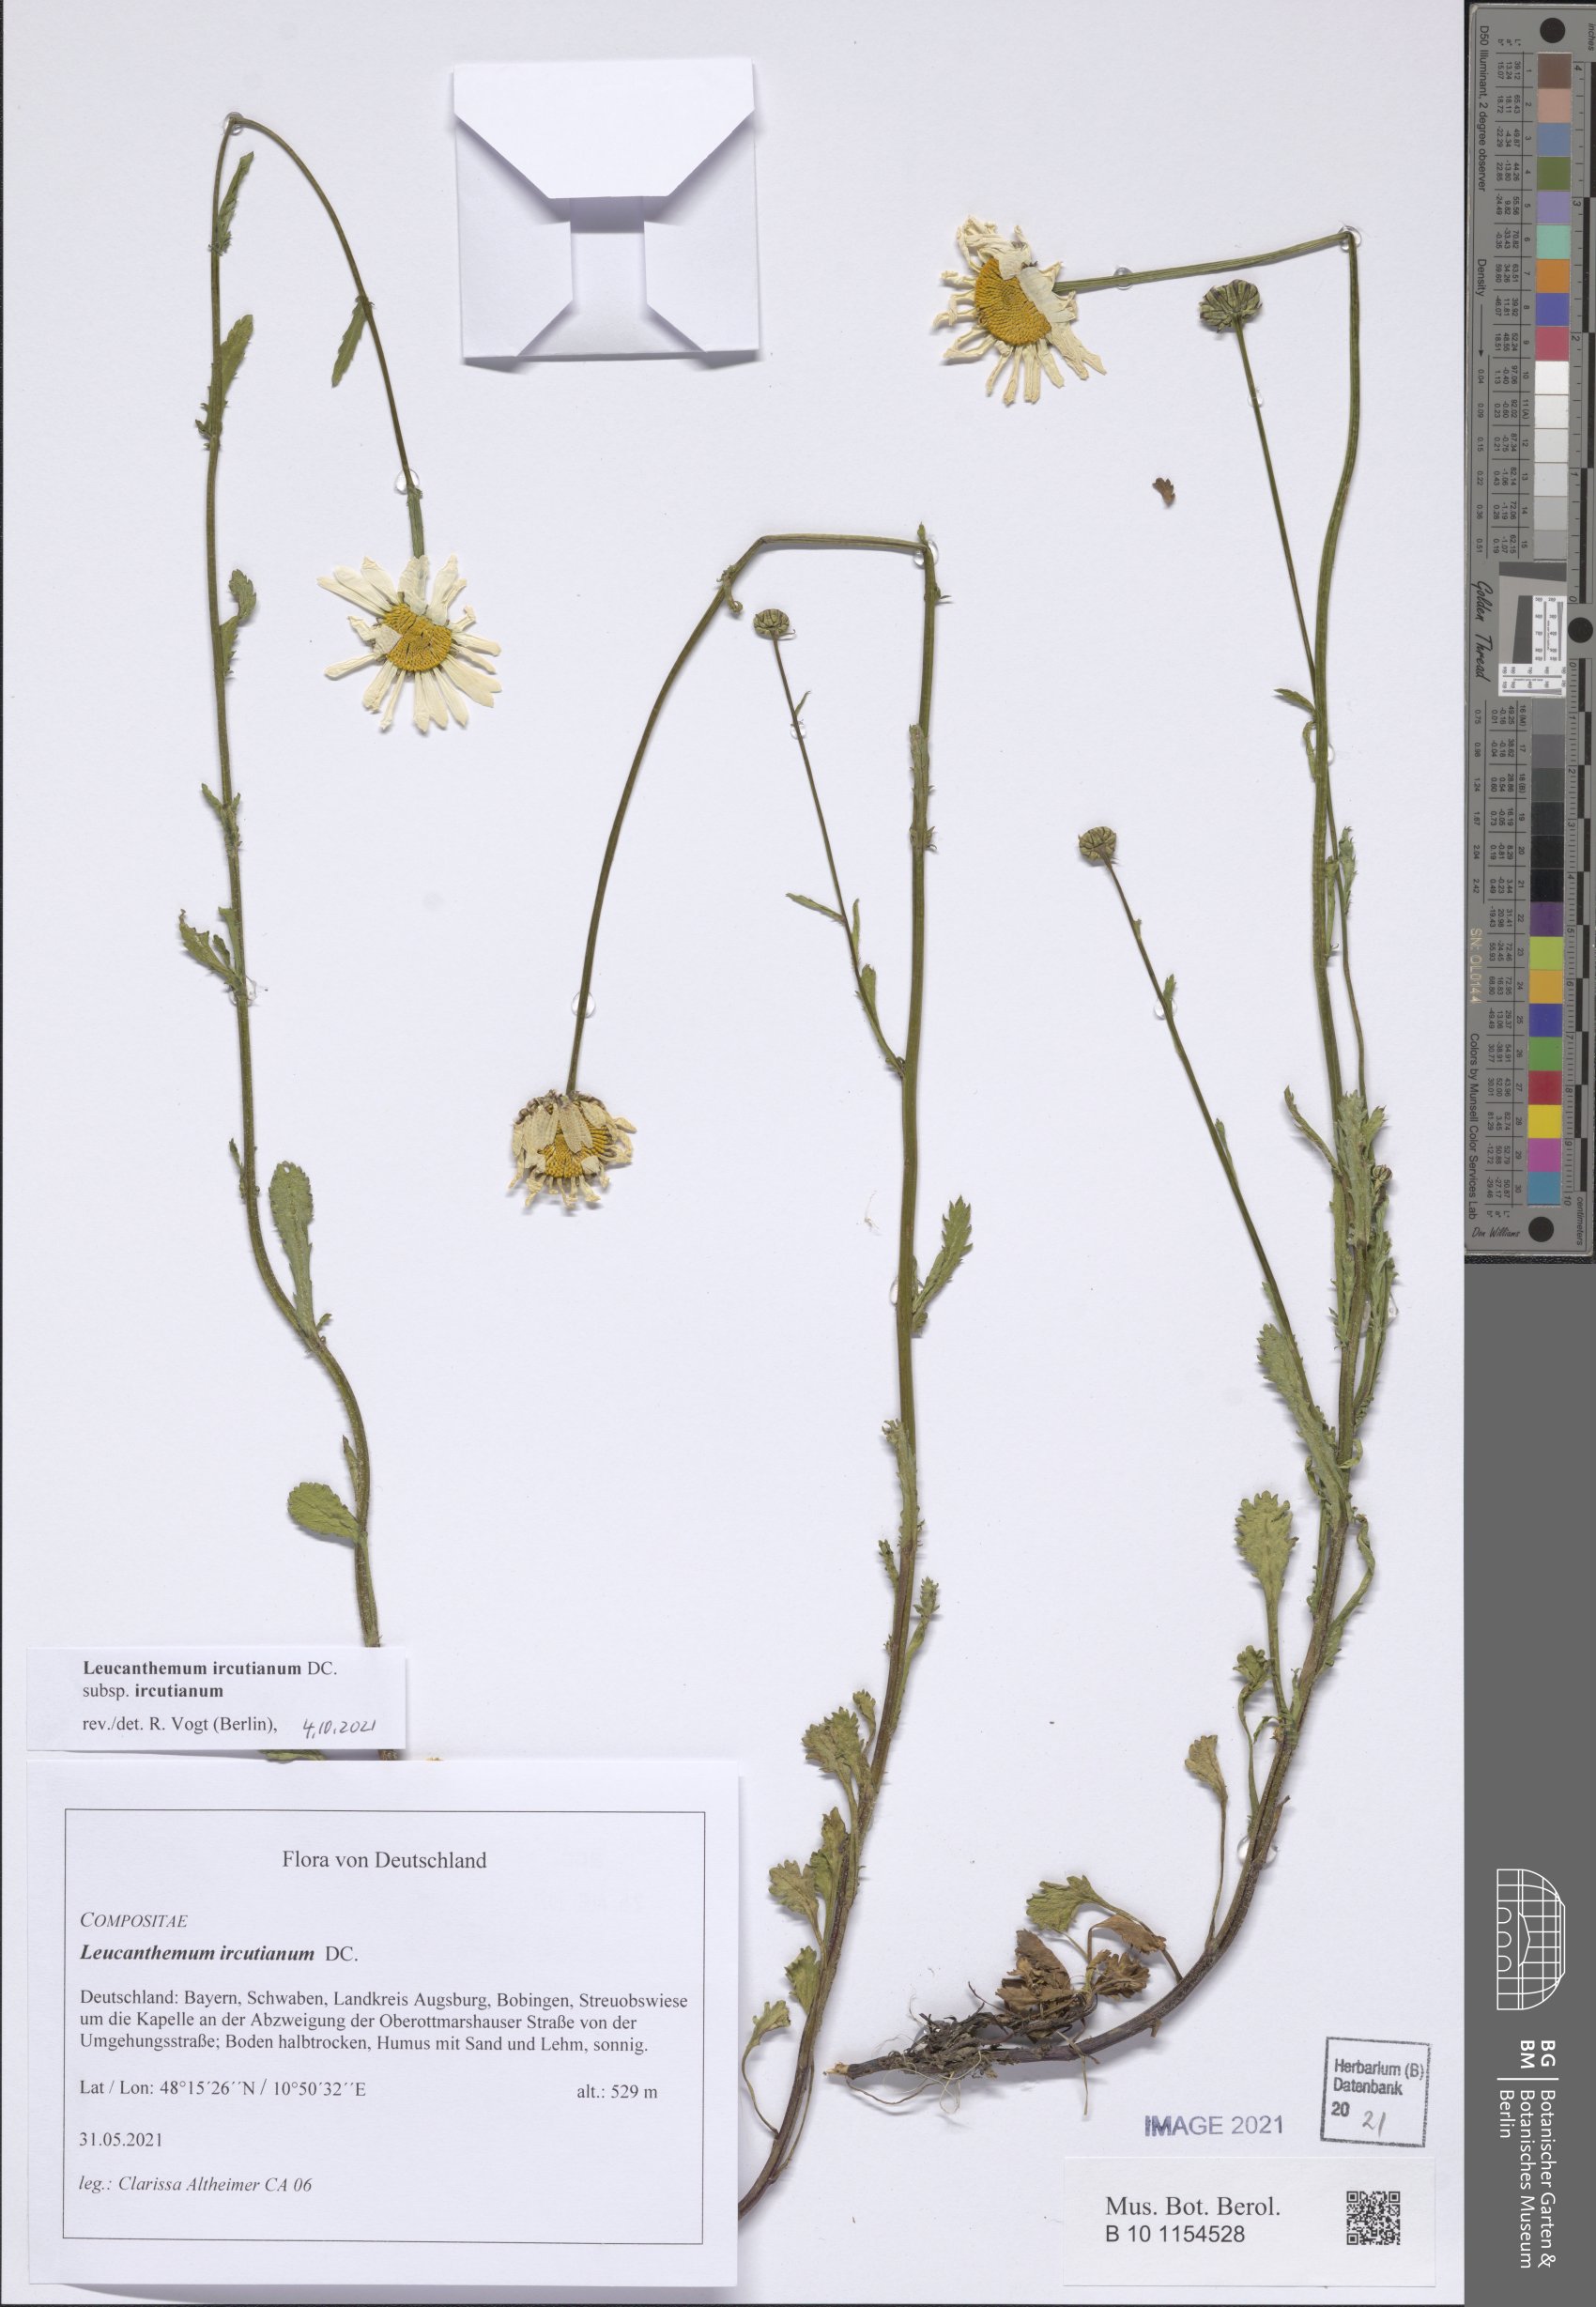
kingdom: Plantae
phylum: Tracheophyta
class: Magnoliopsida
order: Asterales
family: Asteraceae
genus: Leucanthemum
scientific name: Leucanthemum ircutianum
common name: Daisy
